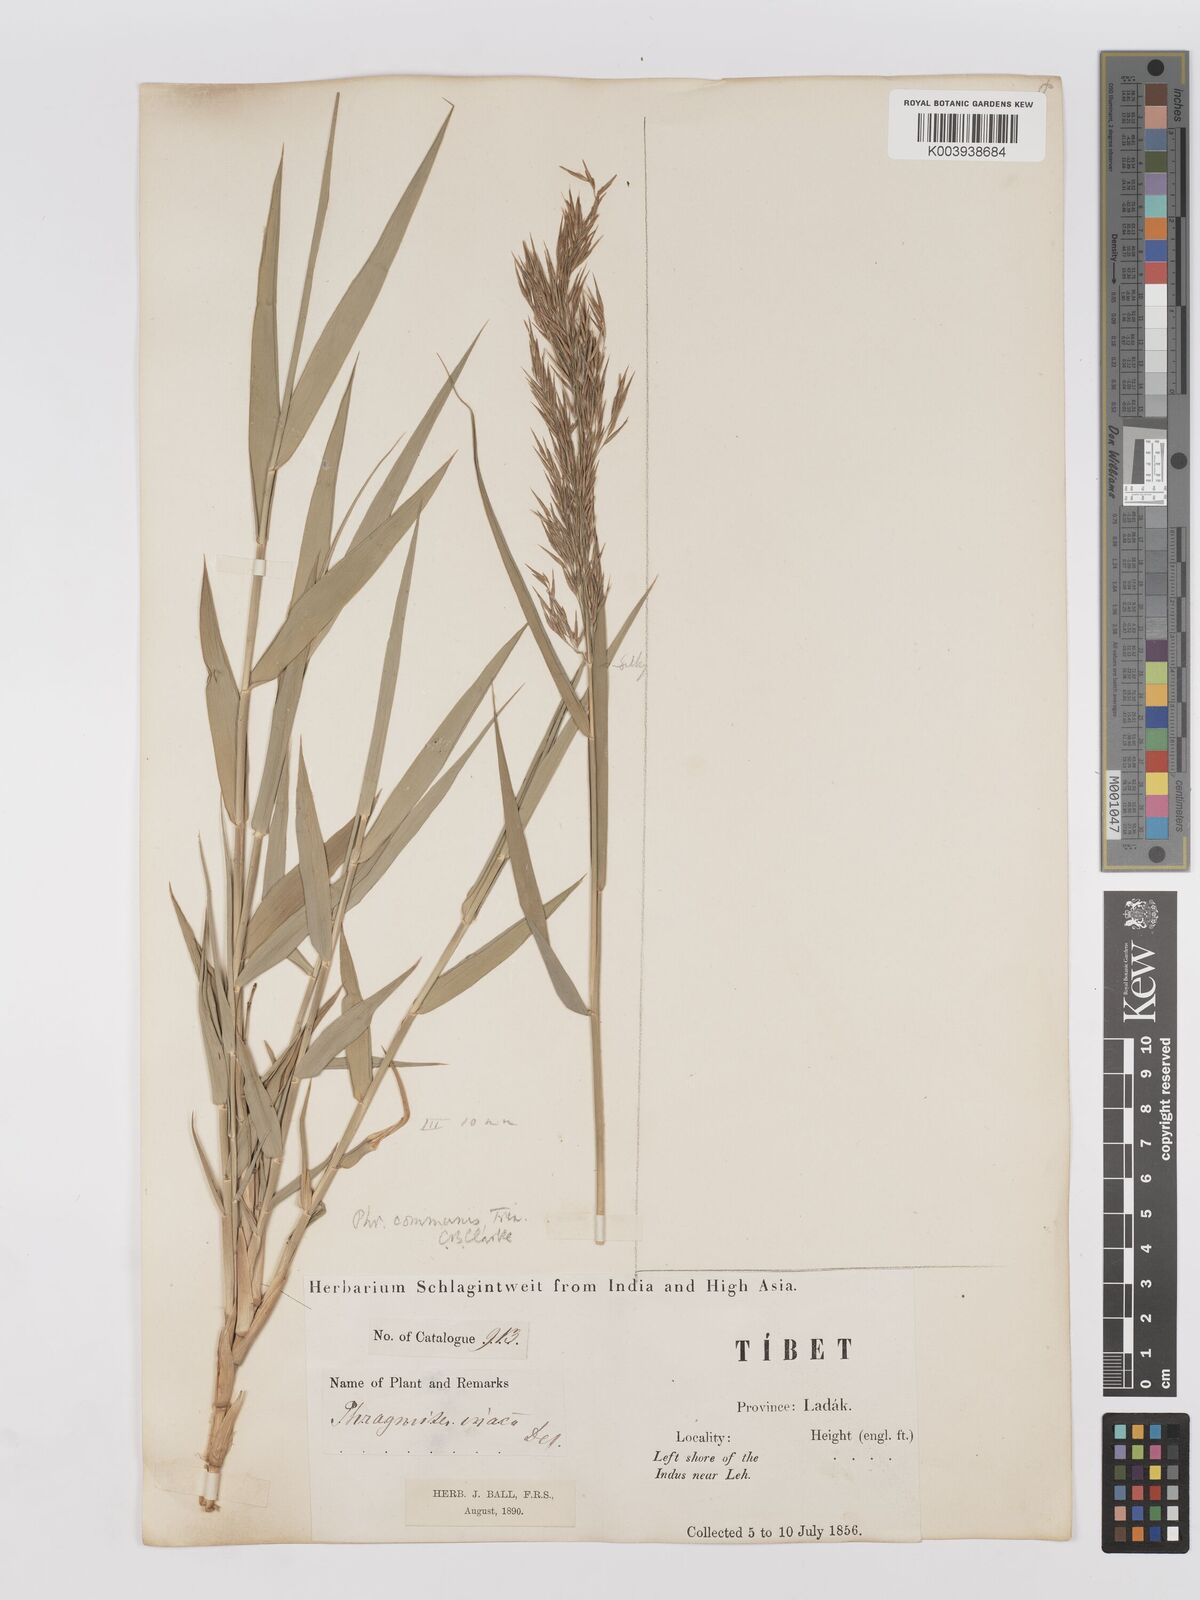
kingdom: Plantae
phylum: Tracheophyta
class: Liliopsida
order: Poales
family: Poaceae
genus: Phragmites
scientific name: Phragmites australis
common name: Common reed
